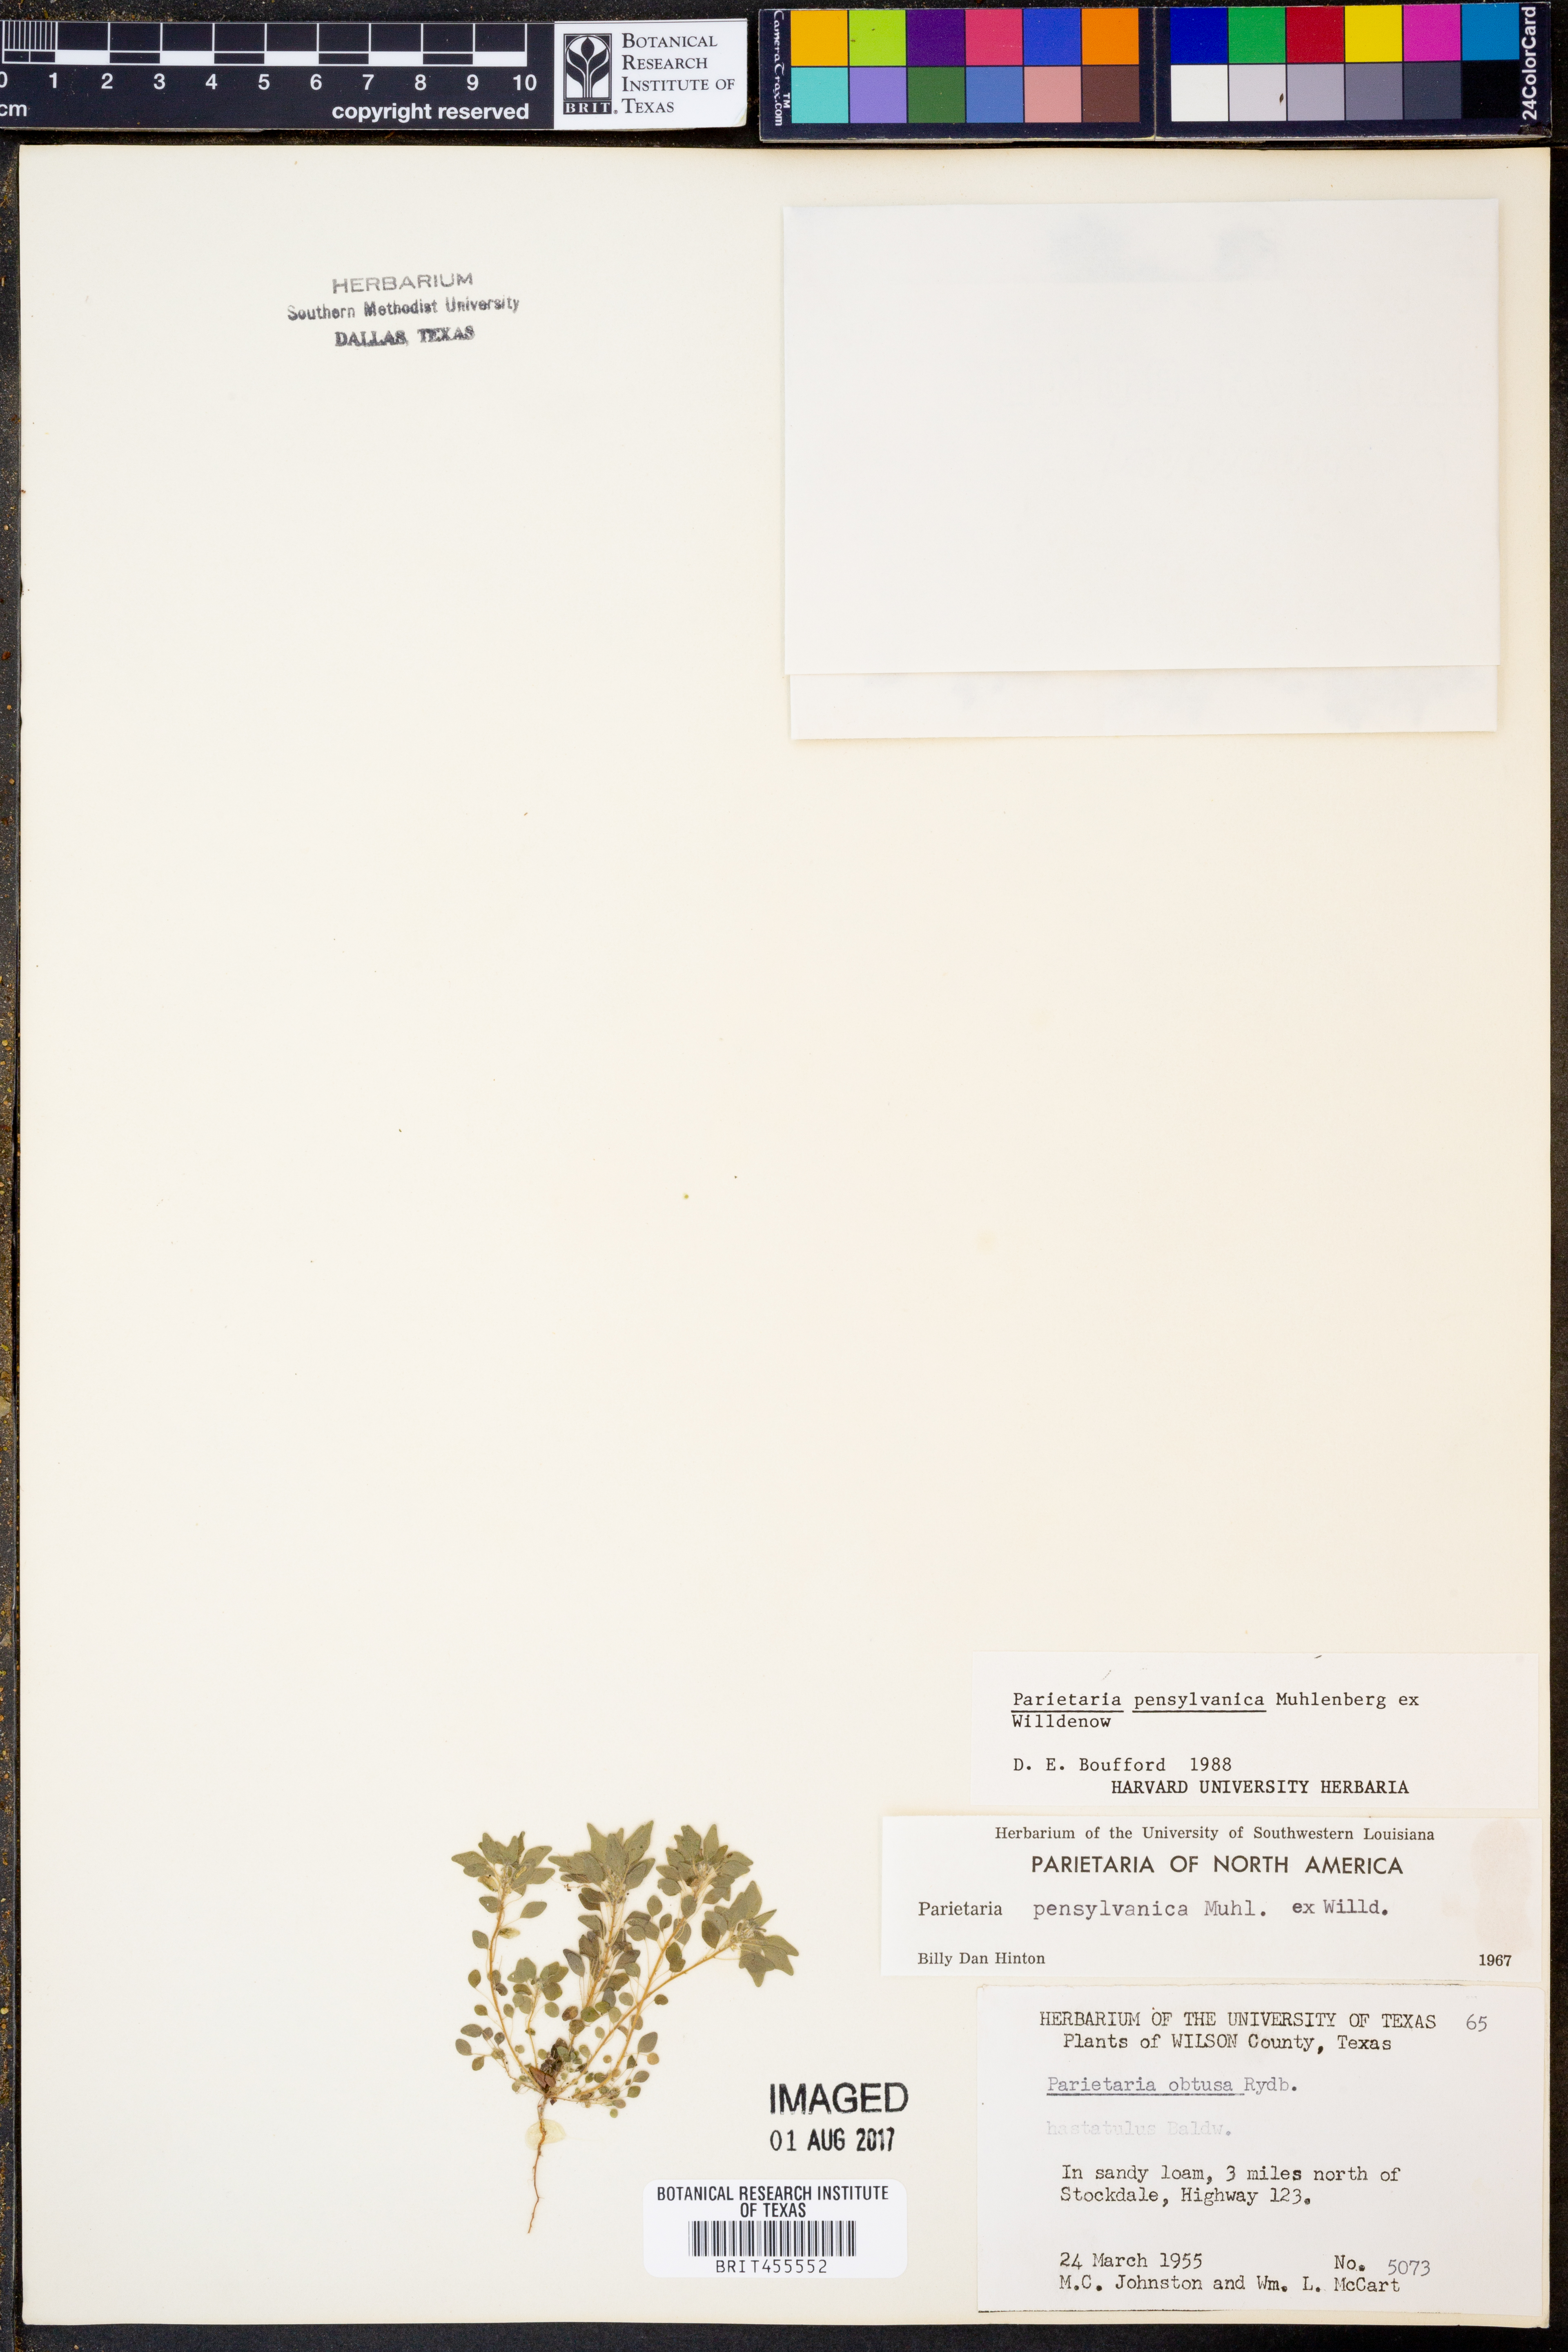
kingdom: Plantae
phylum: Tracheophyta
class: Magnoliopsida
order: Rosales
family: Urticaceae
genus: Parietaria
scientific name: Parietaria pensylvanica
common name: Pennsylvania pellitory
